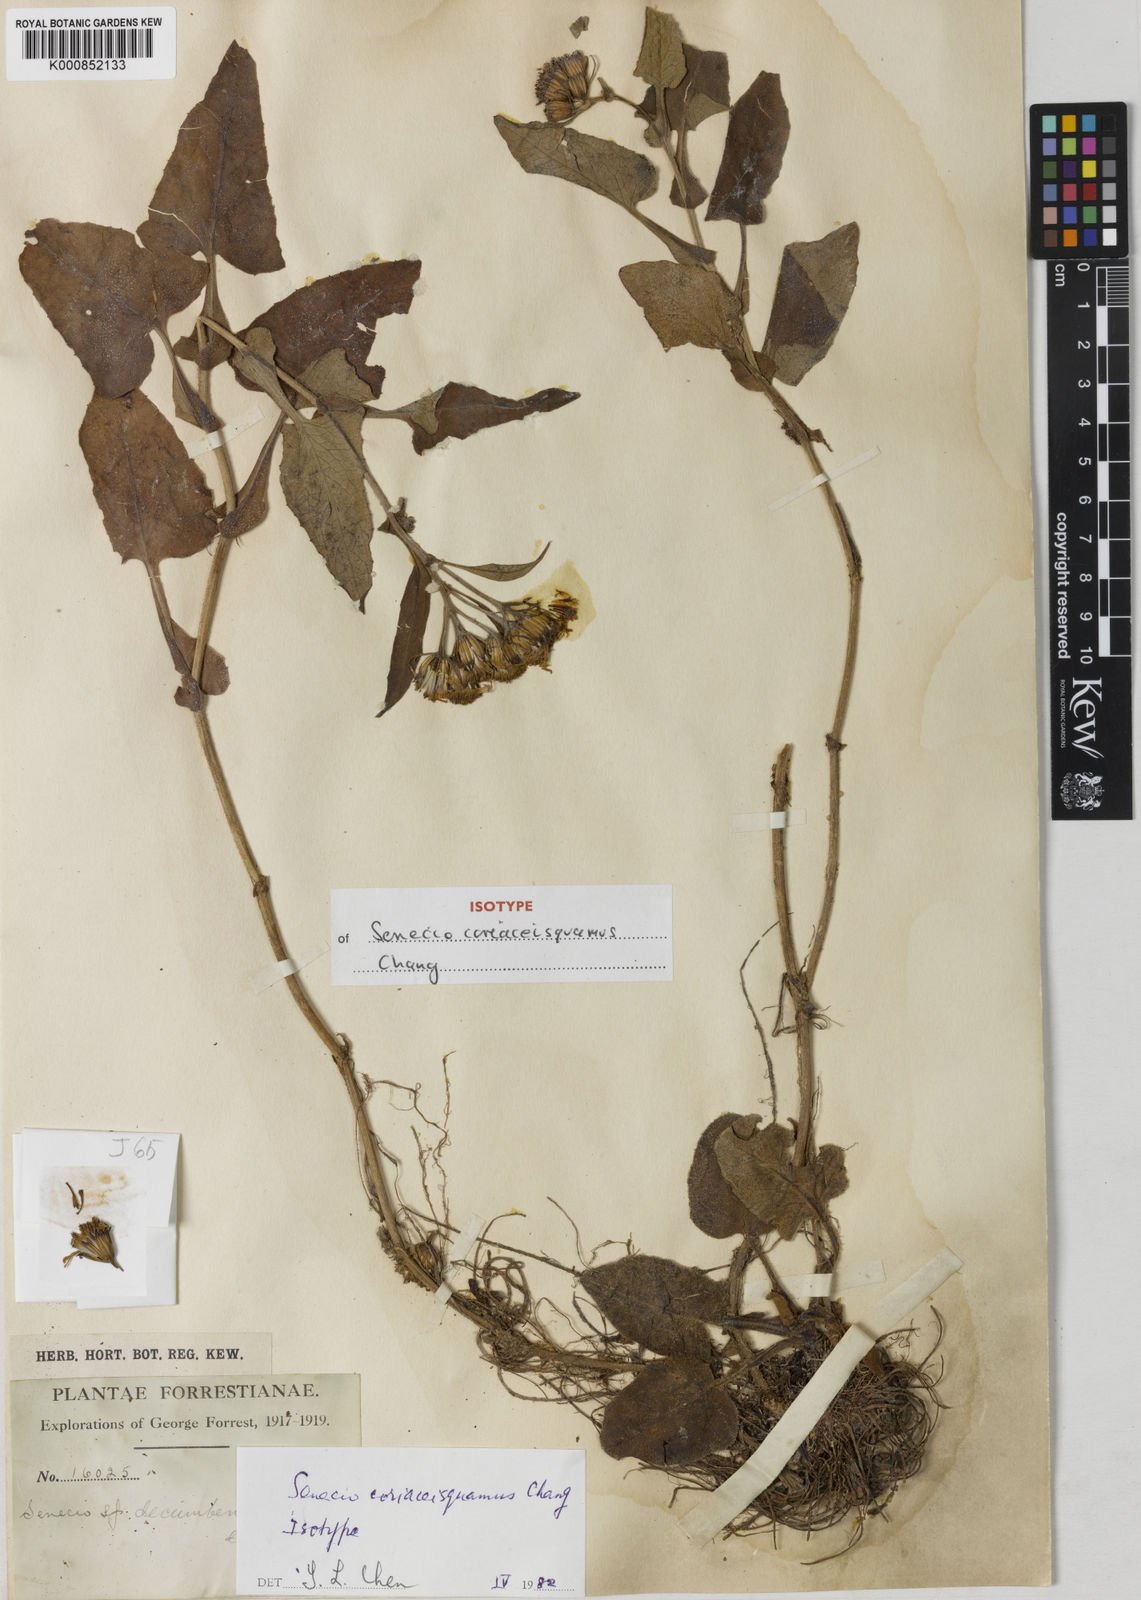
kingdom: Plantae
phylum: Tracheophyta
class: Magnoliopsida
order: Asterales
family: Asteraceae
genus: Senecio
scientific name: Senecio coriaceisquamus
